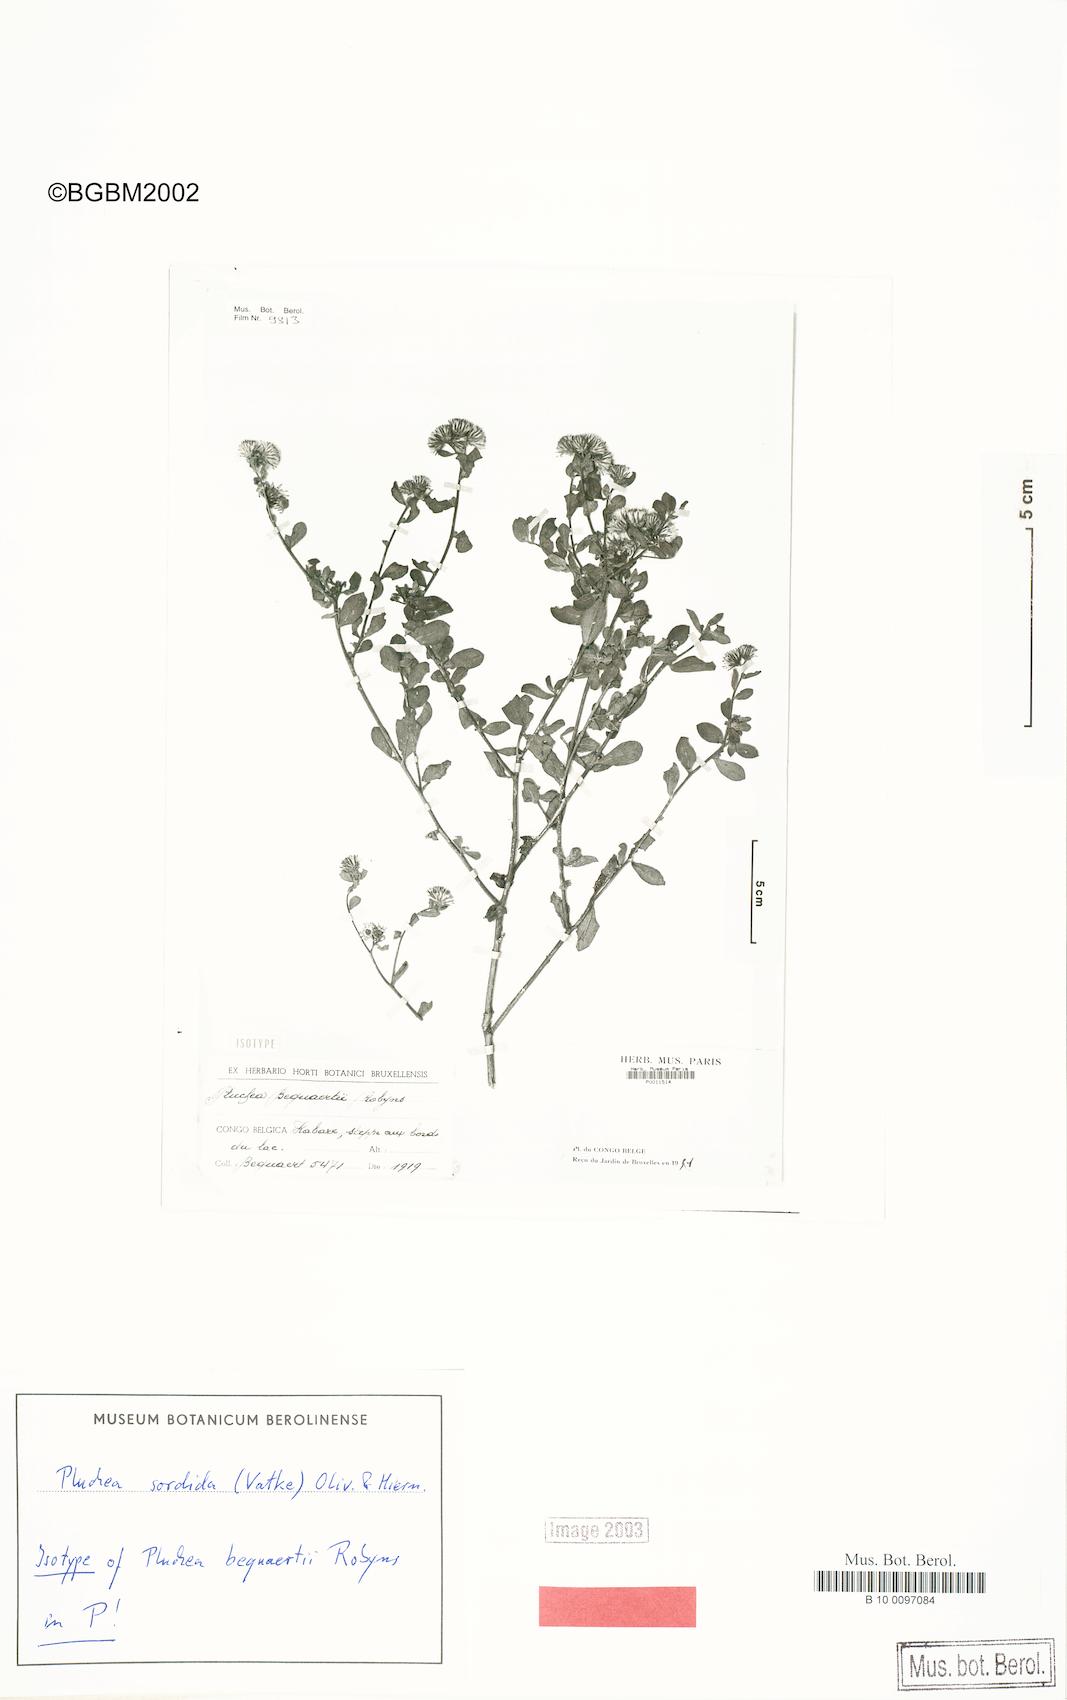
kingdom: Plantae
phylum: Tracheophyta
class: Magnoliopsida
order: Asterales
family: Asteraceae
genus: Pluchea
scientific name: Pluchea sordida
